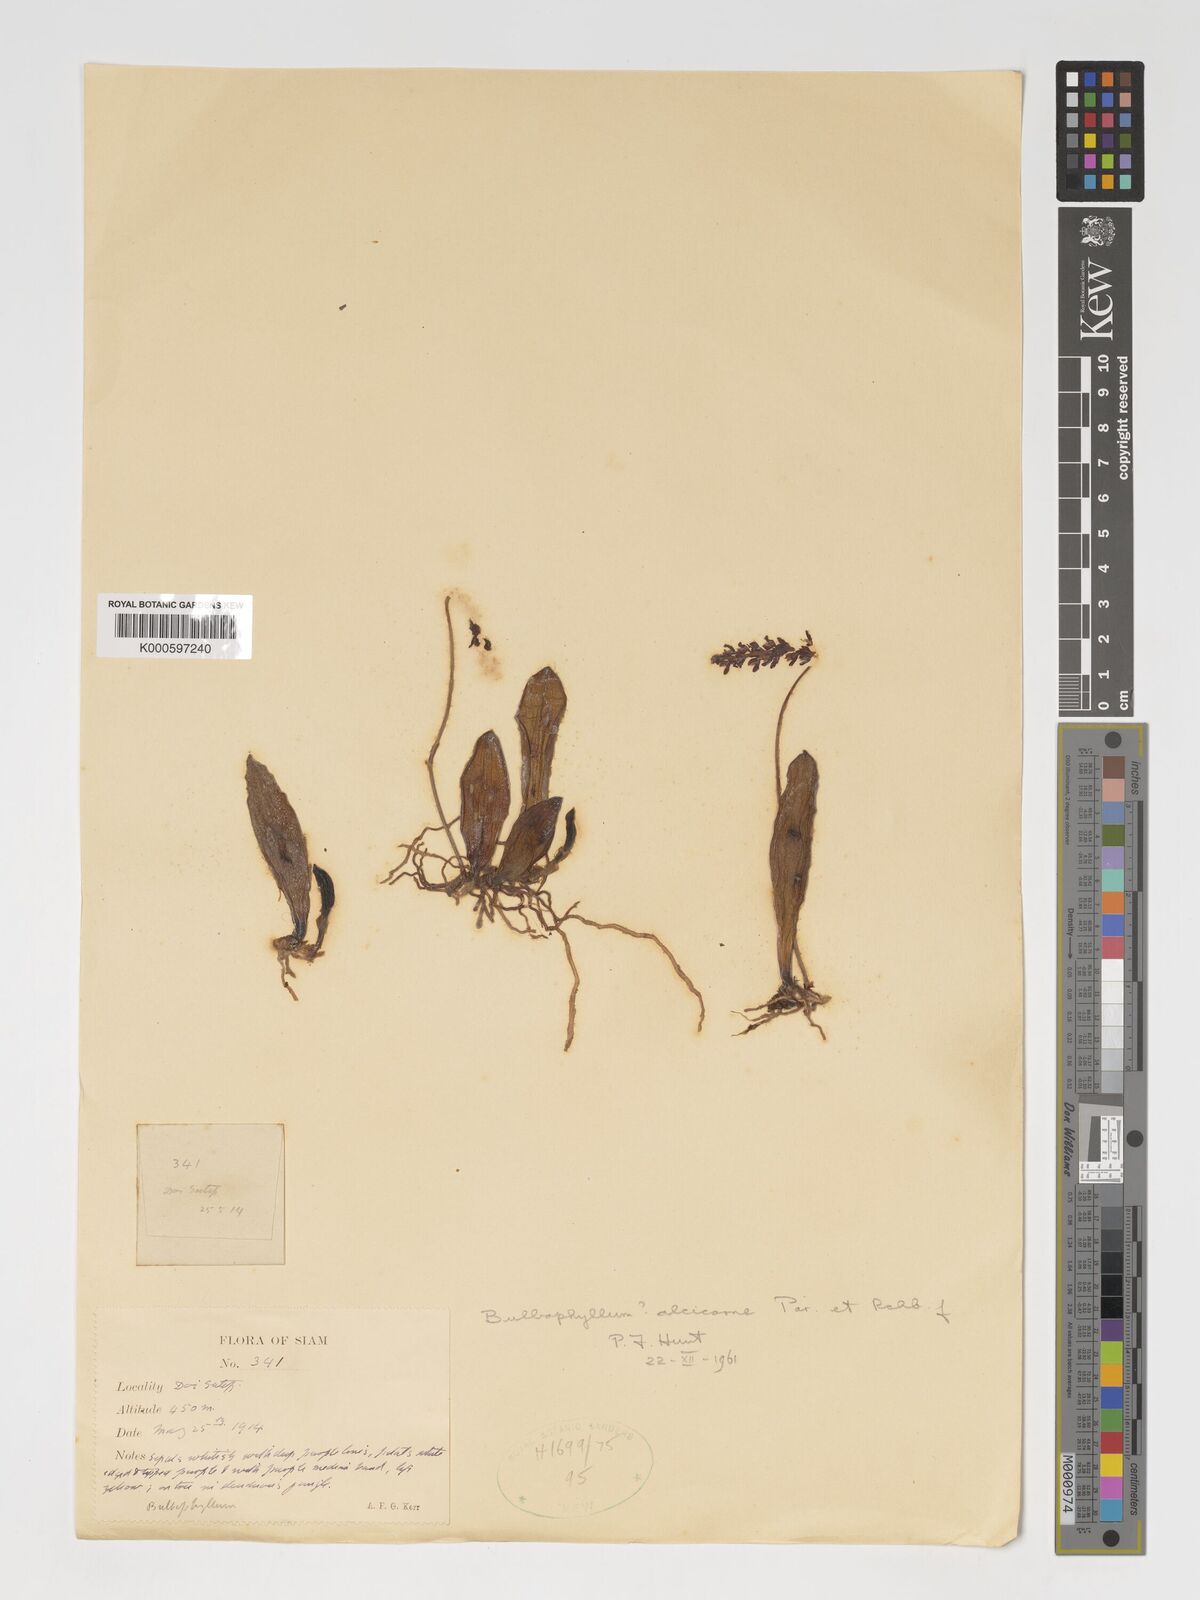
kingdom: Plantae
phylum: Tracheophyta
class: Liliopsida
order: Asparagales
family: Orchidaceae
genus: Bulbophyllum
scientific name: Bulbophyllum alcicorne
